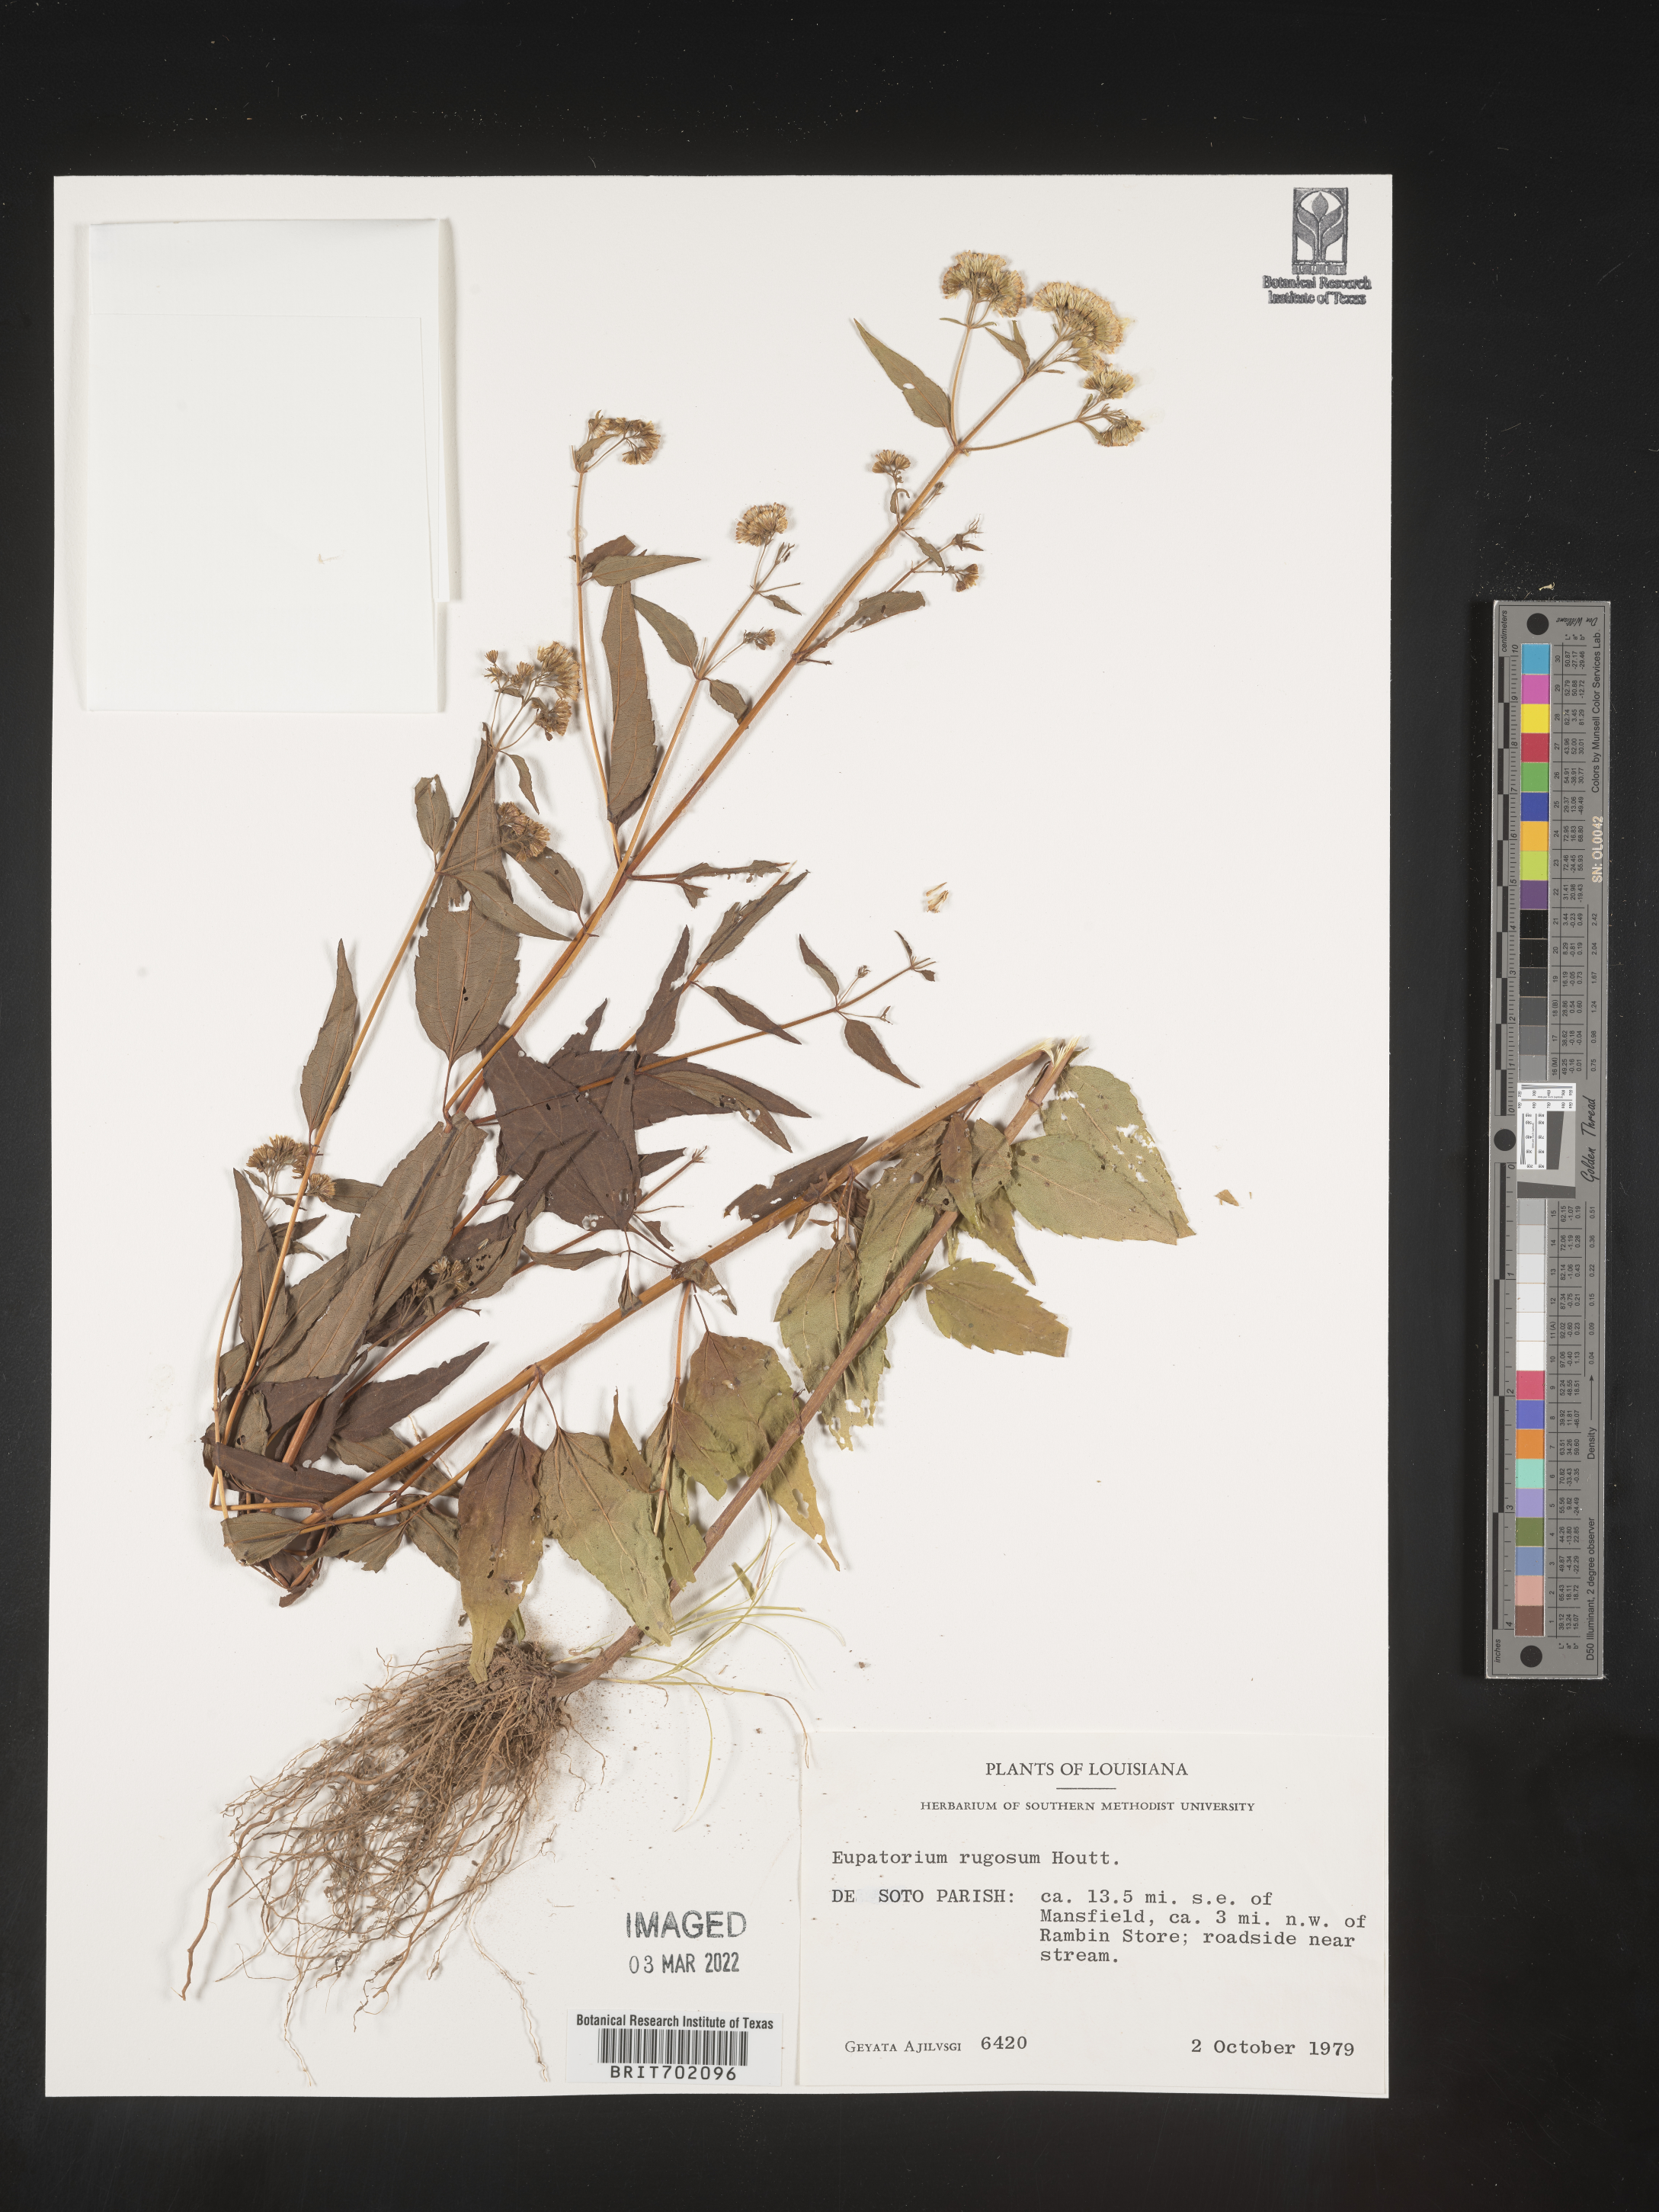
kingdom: Plantae
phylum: Tracheophyta
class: Magnoliopsida
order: Asterales
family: Asteraceae
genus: Cronquistianthus
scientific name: Cronquistianthus bulliferus
